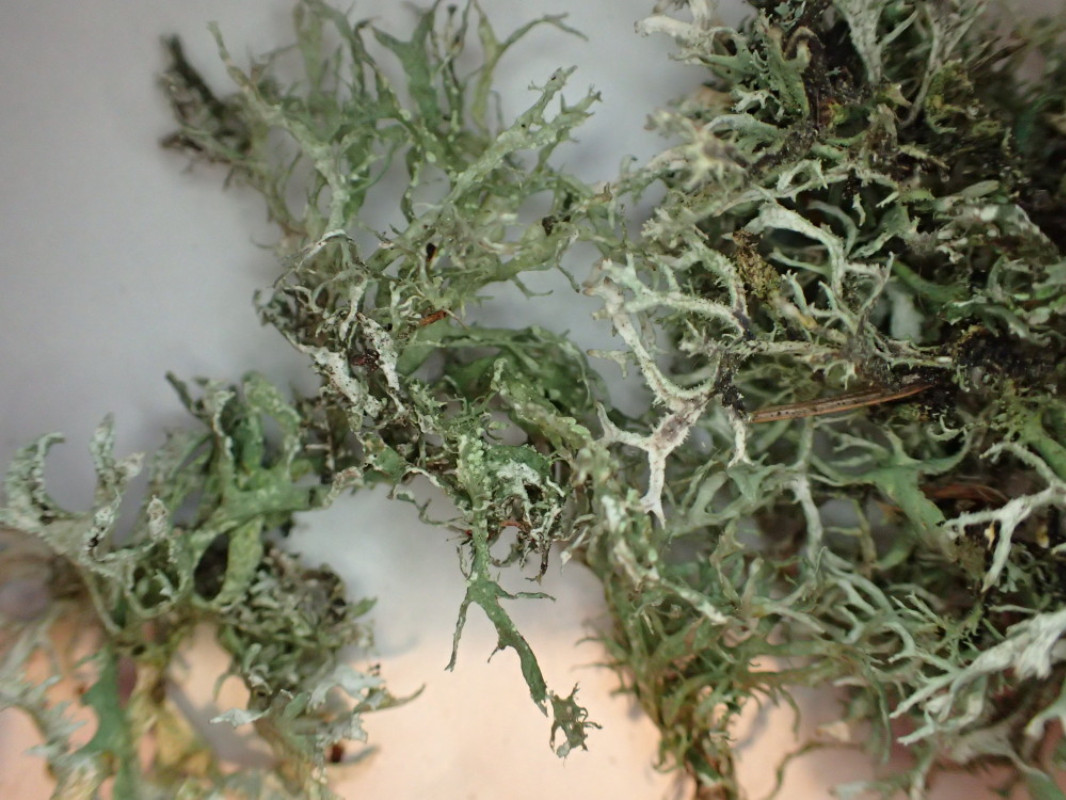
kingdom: Fungi
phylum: Ascomycota
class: Lecanoromycetes
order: Lecanorales
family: Parmeliaceae
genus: Pseudevernia
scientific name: Pseudevernia furfuracea
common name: grå fyrrelav
